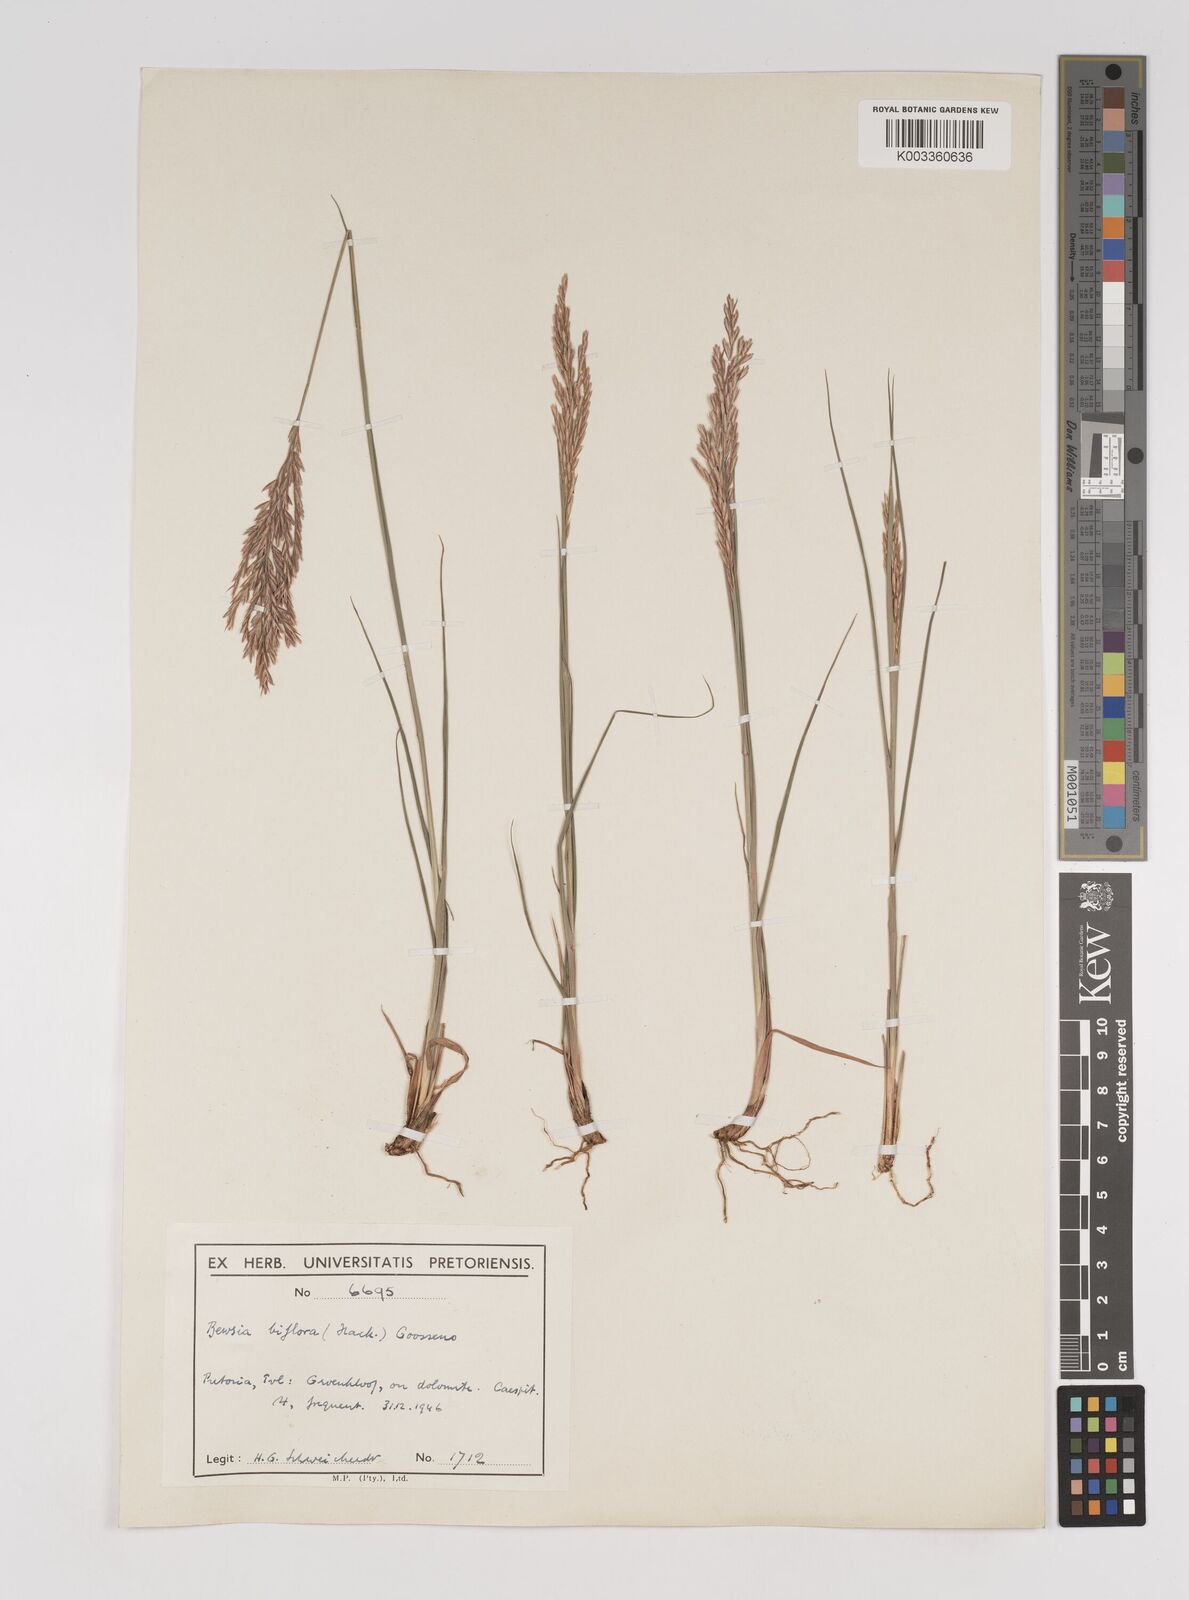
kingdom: Plantae
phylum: Tracheophyta
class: Liliopsida
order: Poales
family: Poaceae
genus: Bewsia
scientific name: Bewsia biflora
